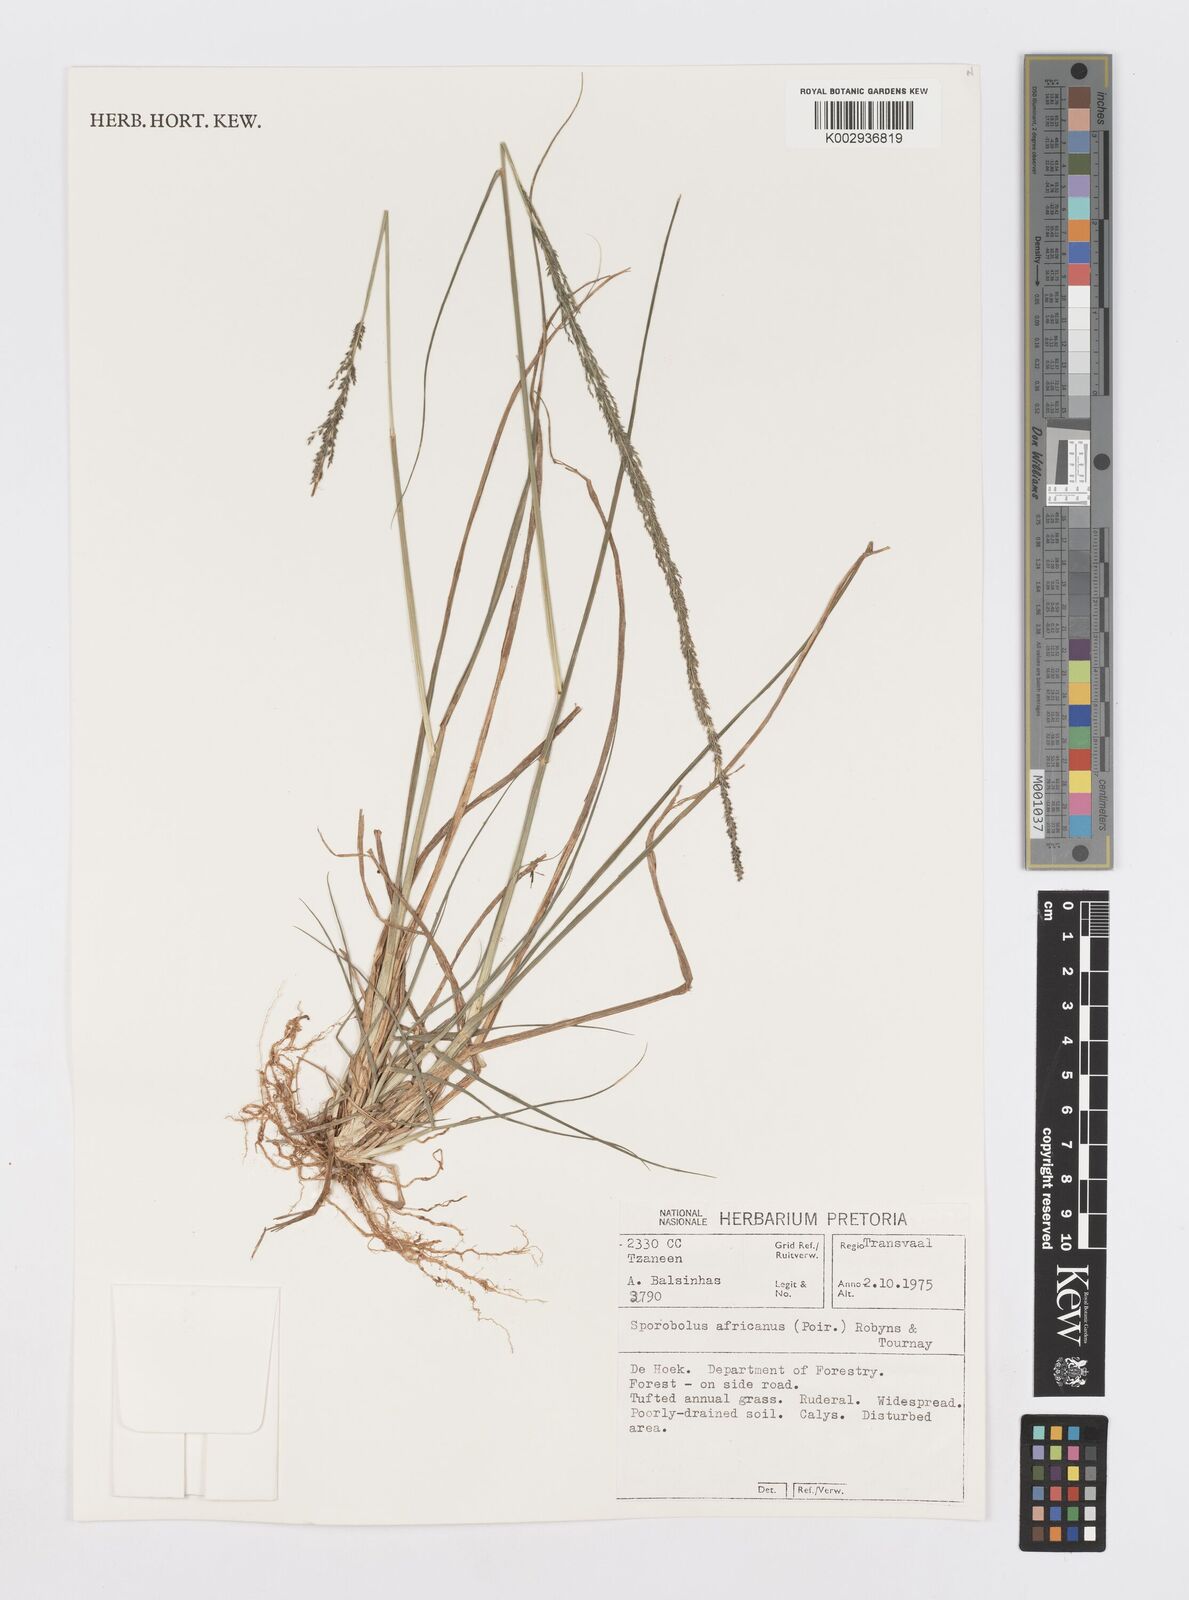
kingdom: Plantae
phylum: Tracheophyta
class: Liliopsida
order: Poales
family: Poaceae
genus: Sporobolus
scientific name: Sporobolus africanus
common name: African dropseed
